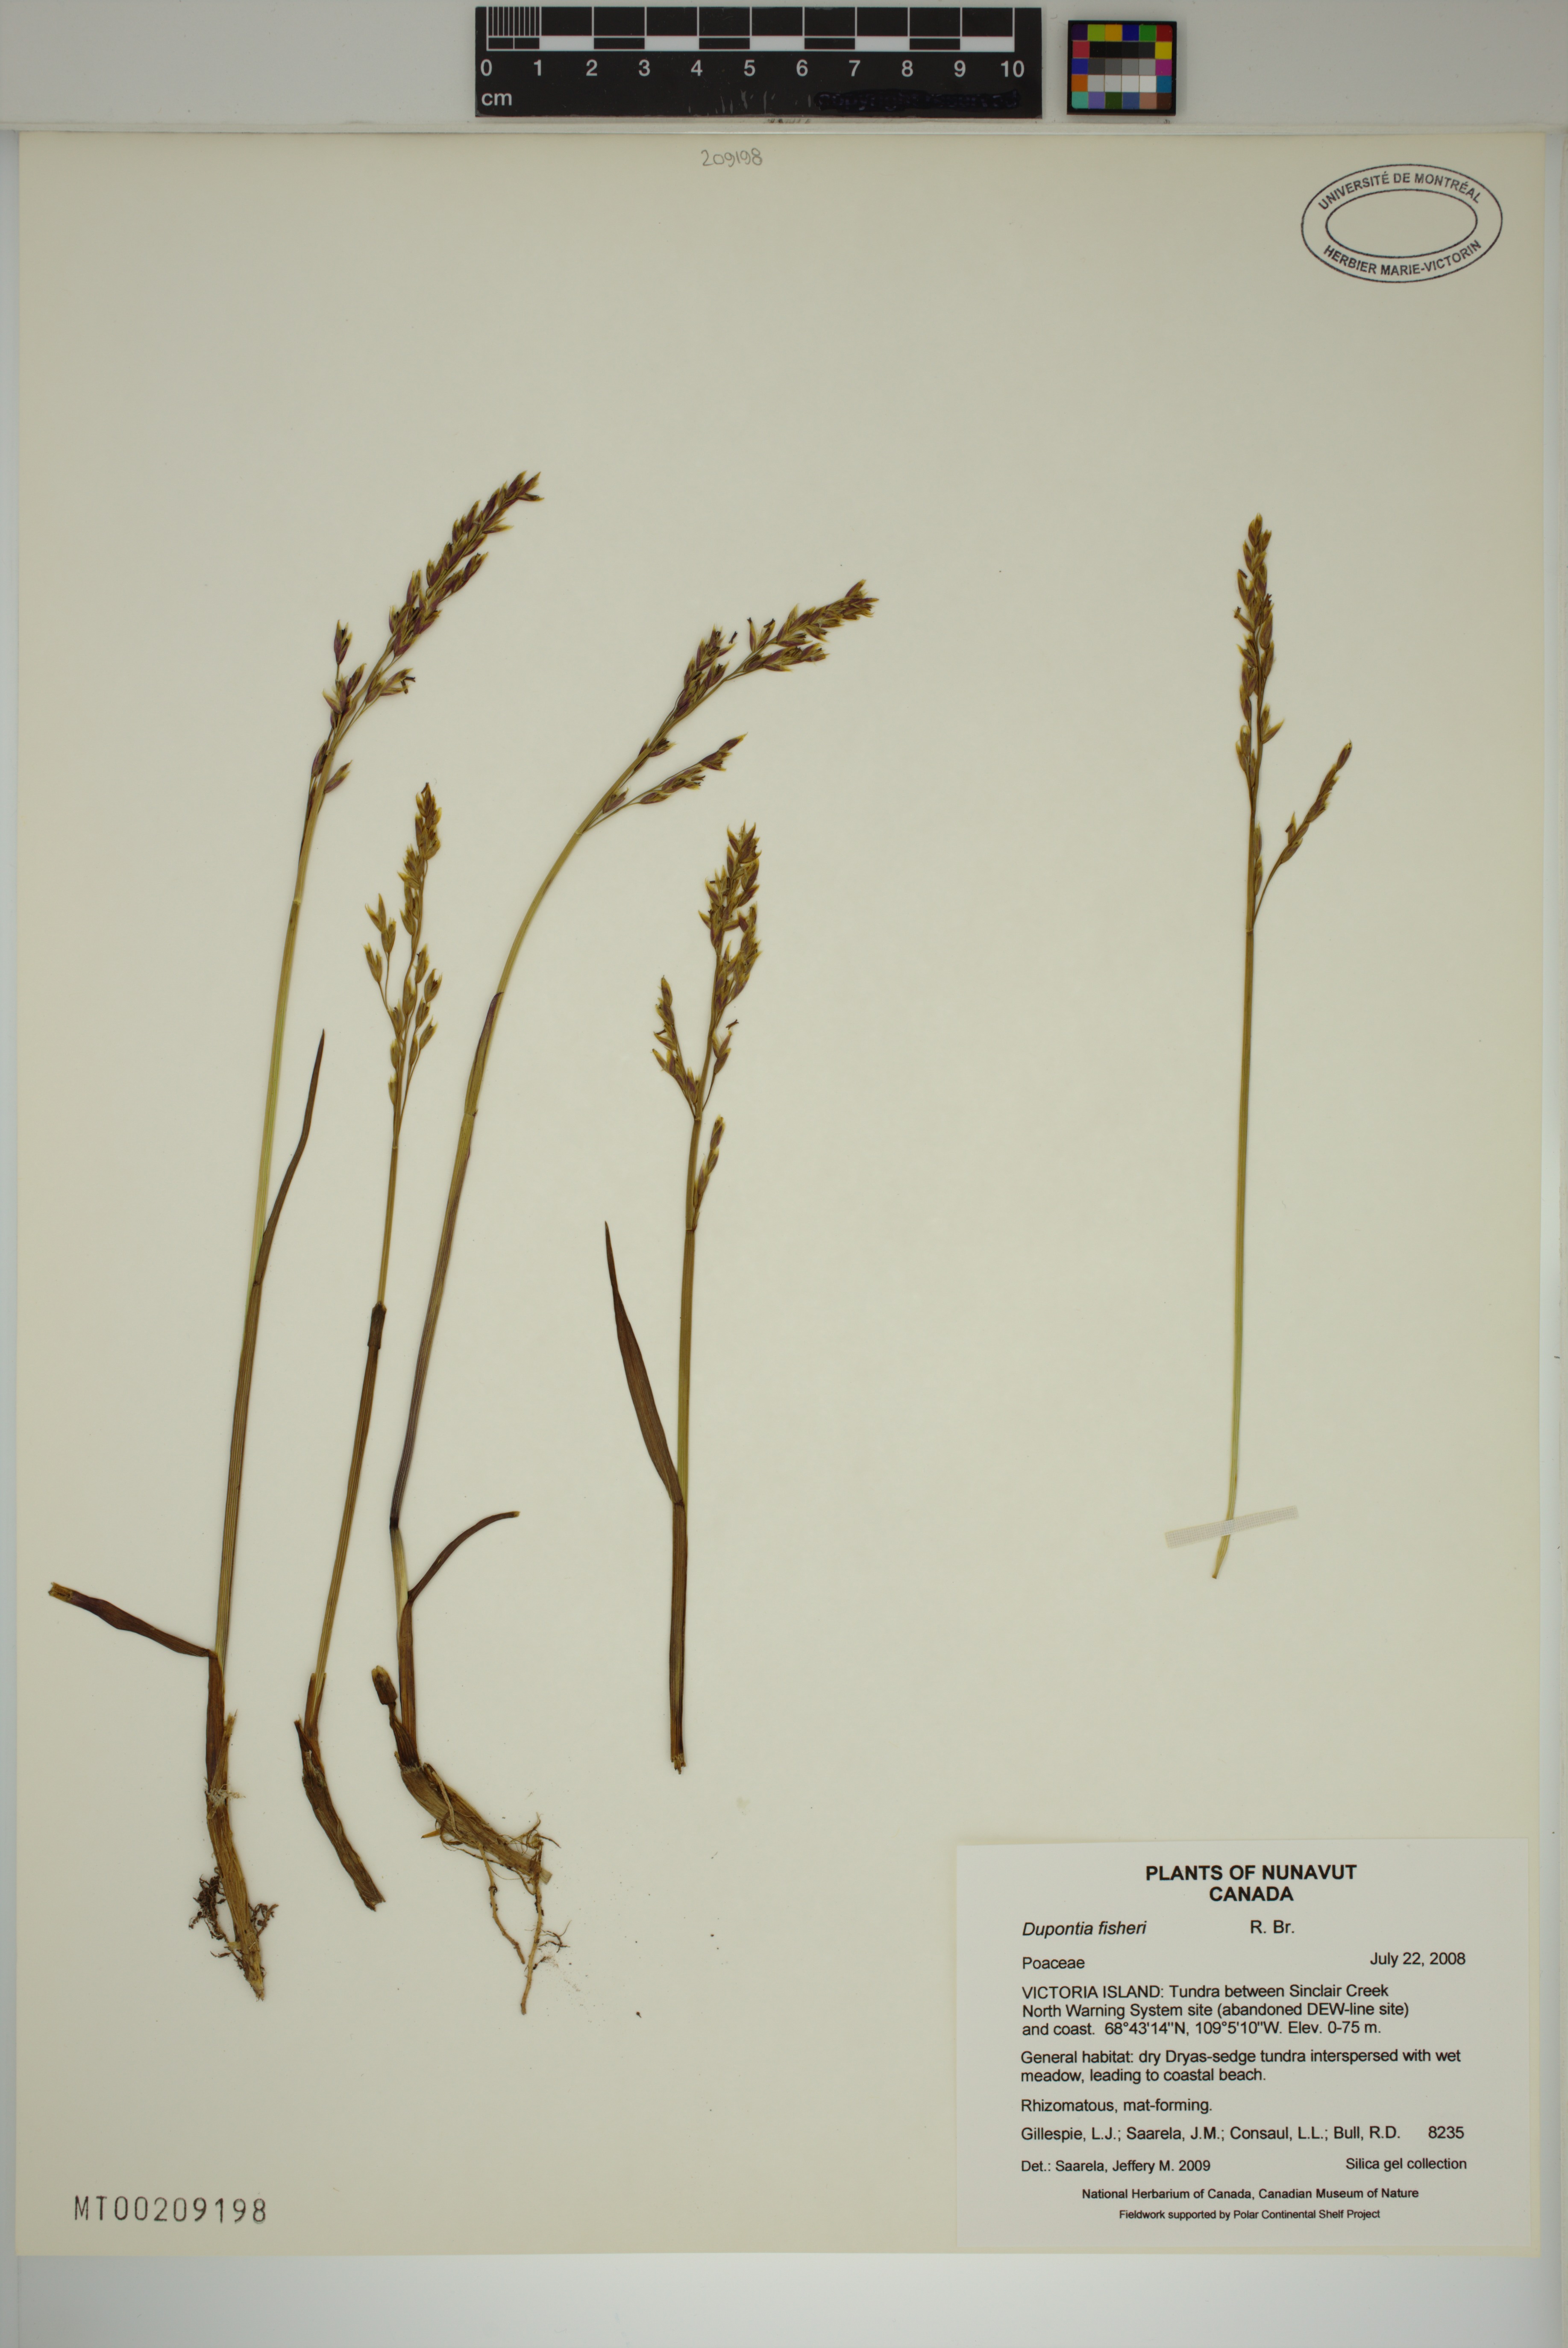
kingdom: Plantae
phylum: Tracheophyta
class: Liliopsida
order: Poales
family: Poaceae
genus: Dupontia
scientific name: Dupontia fisheri
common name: Tundra grass
